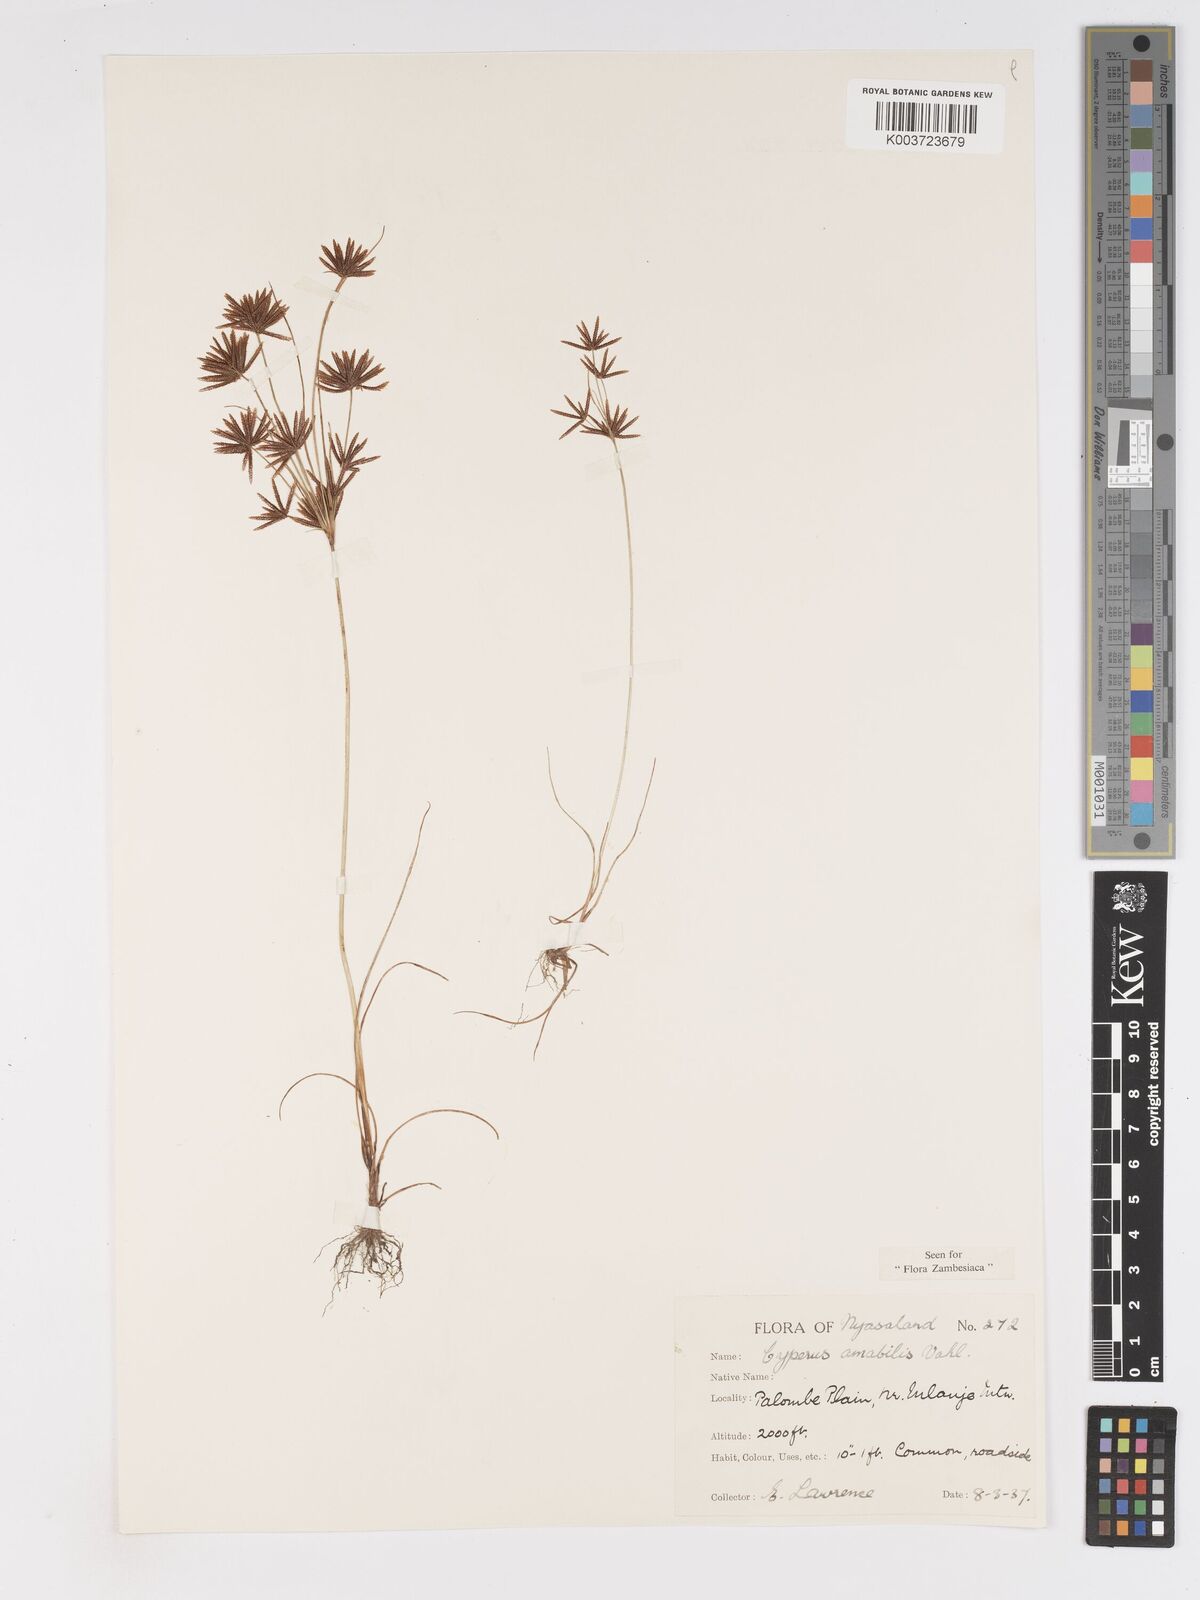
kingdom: Plantae
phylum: Tracheophyta
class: Liliopsida
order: Poales
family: Cyperaceae
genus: Cyperus
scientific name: Cyperus amabilis
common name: Foothill flat sedge
